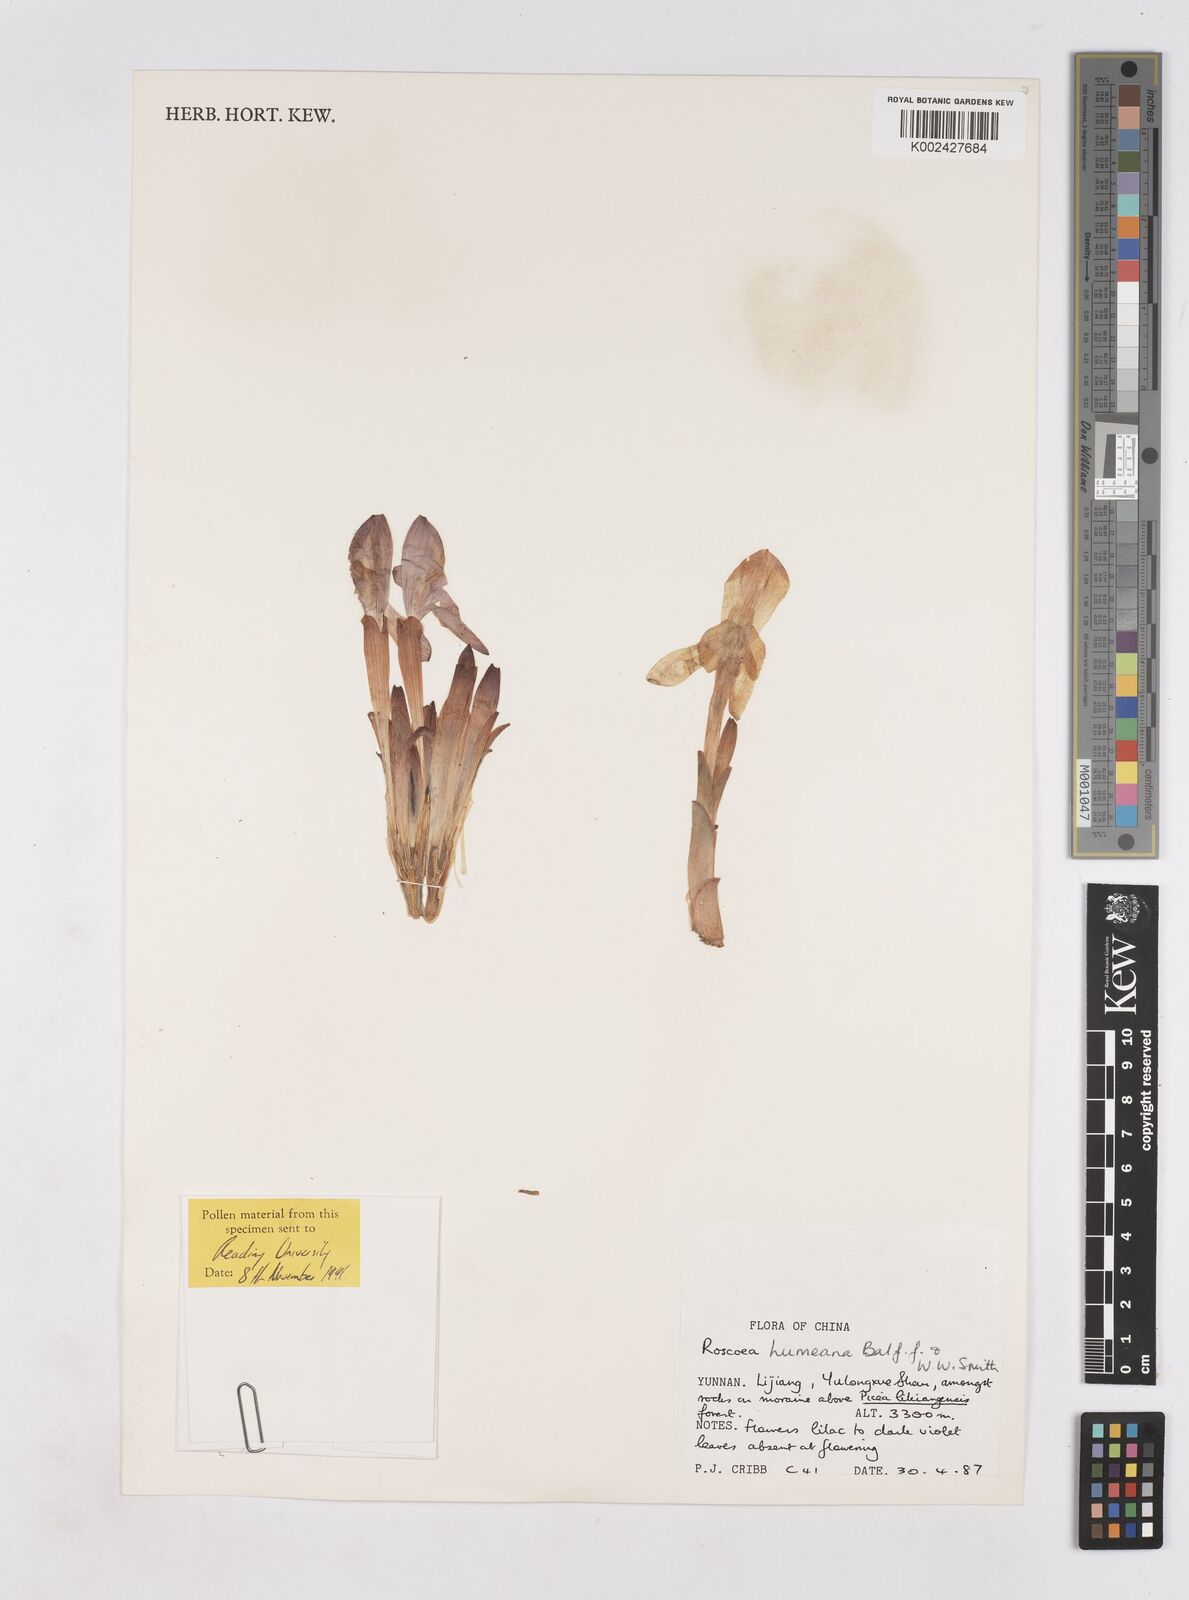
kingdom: Plantae
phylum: Tracheophyta
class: Liliopsida
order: Zingiberales
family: Zingiberaceae
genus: Roscoea
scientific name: Roscoea humeana
